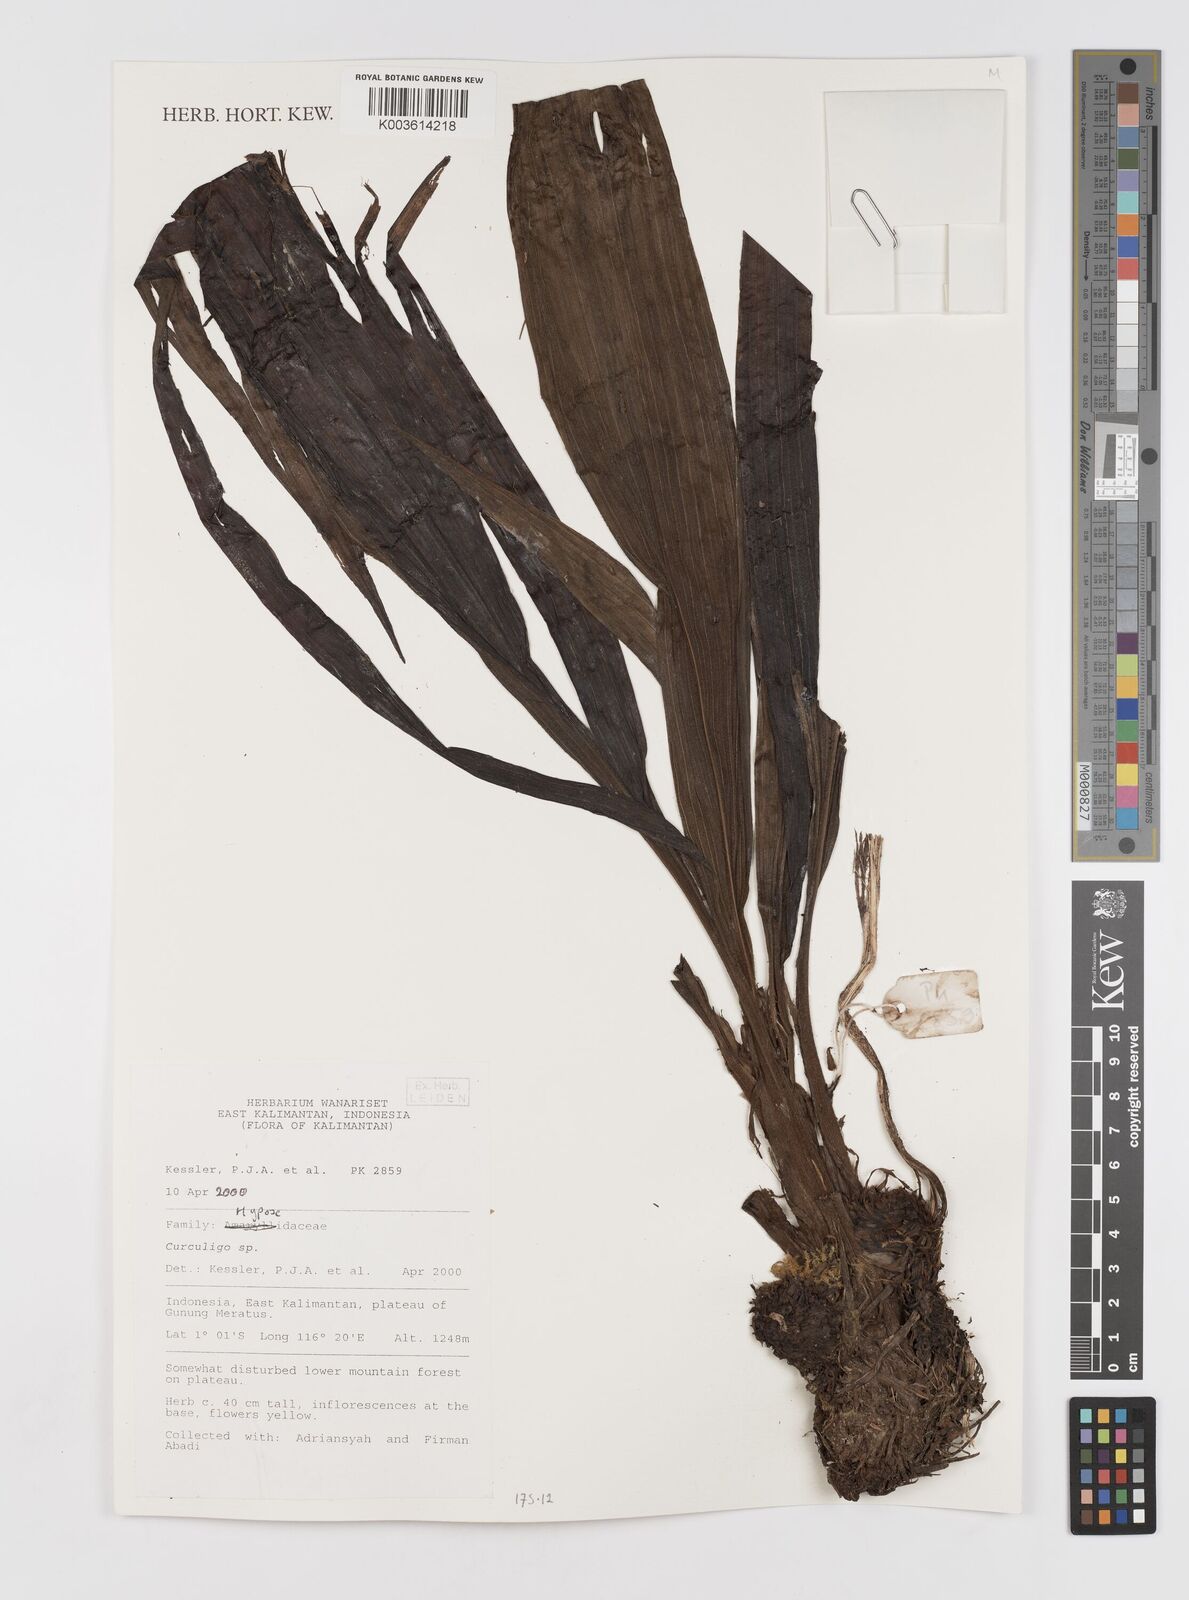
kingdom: Plantae
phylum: Tracheophyta
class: Liliopsida
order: Asparagales
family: Hypoxidaceae
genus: Curculigo
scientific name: Curculigo
